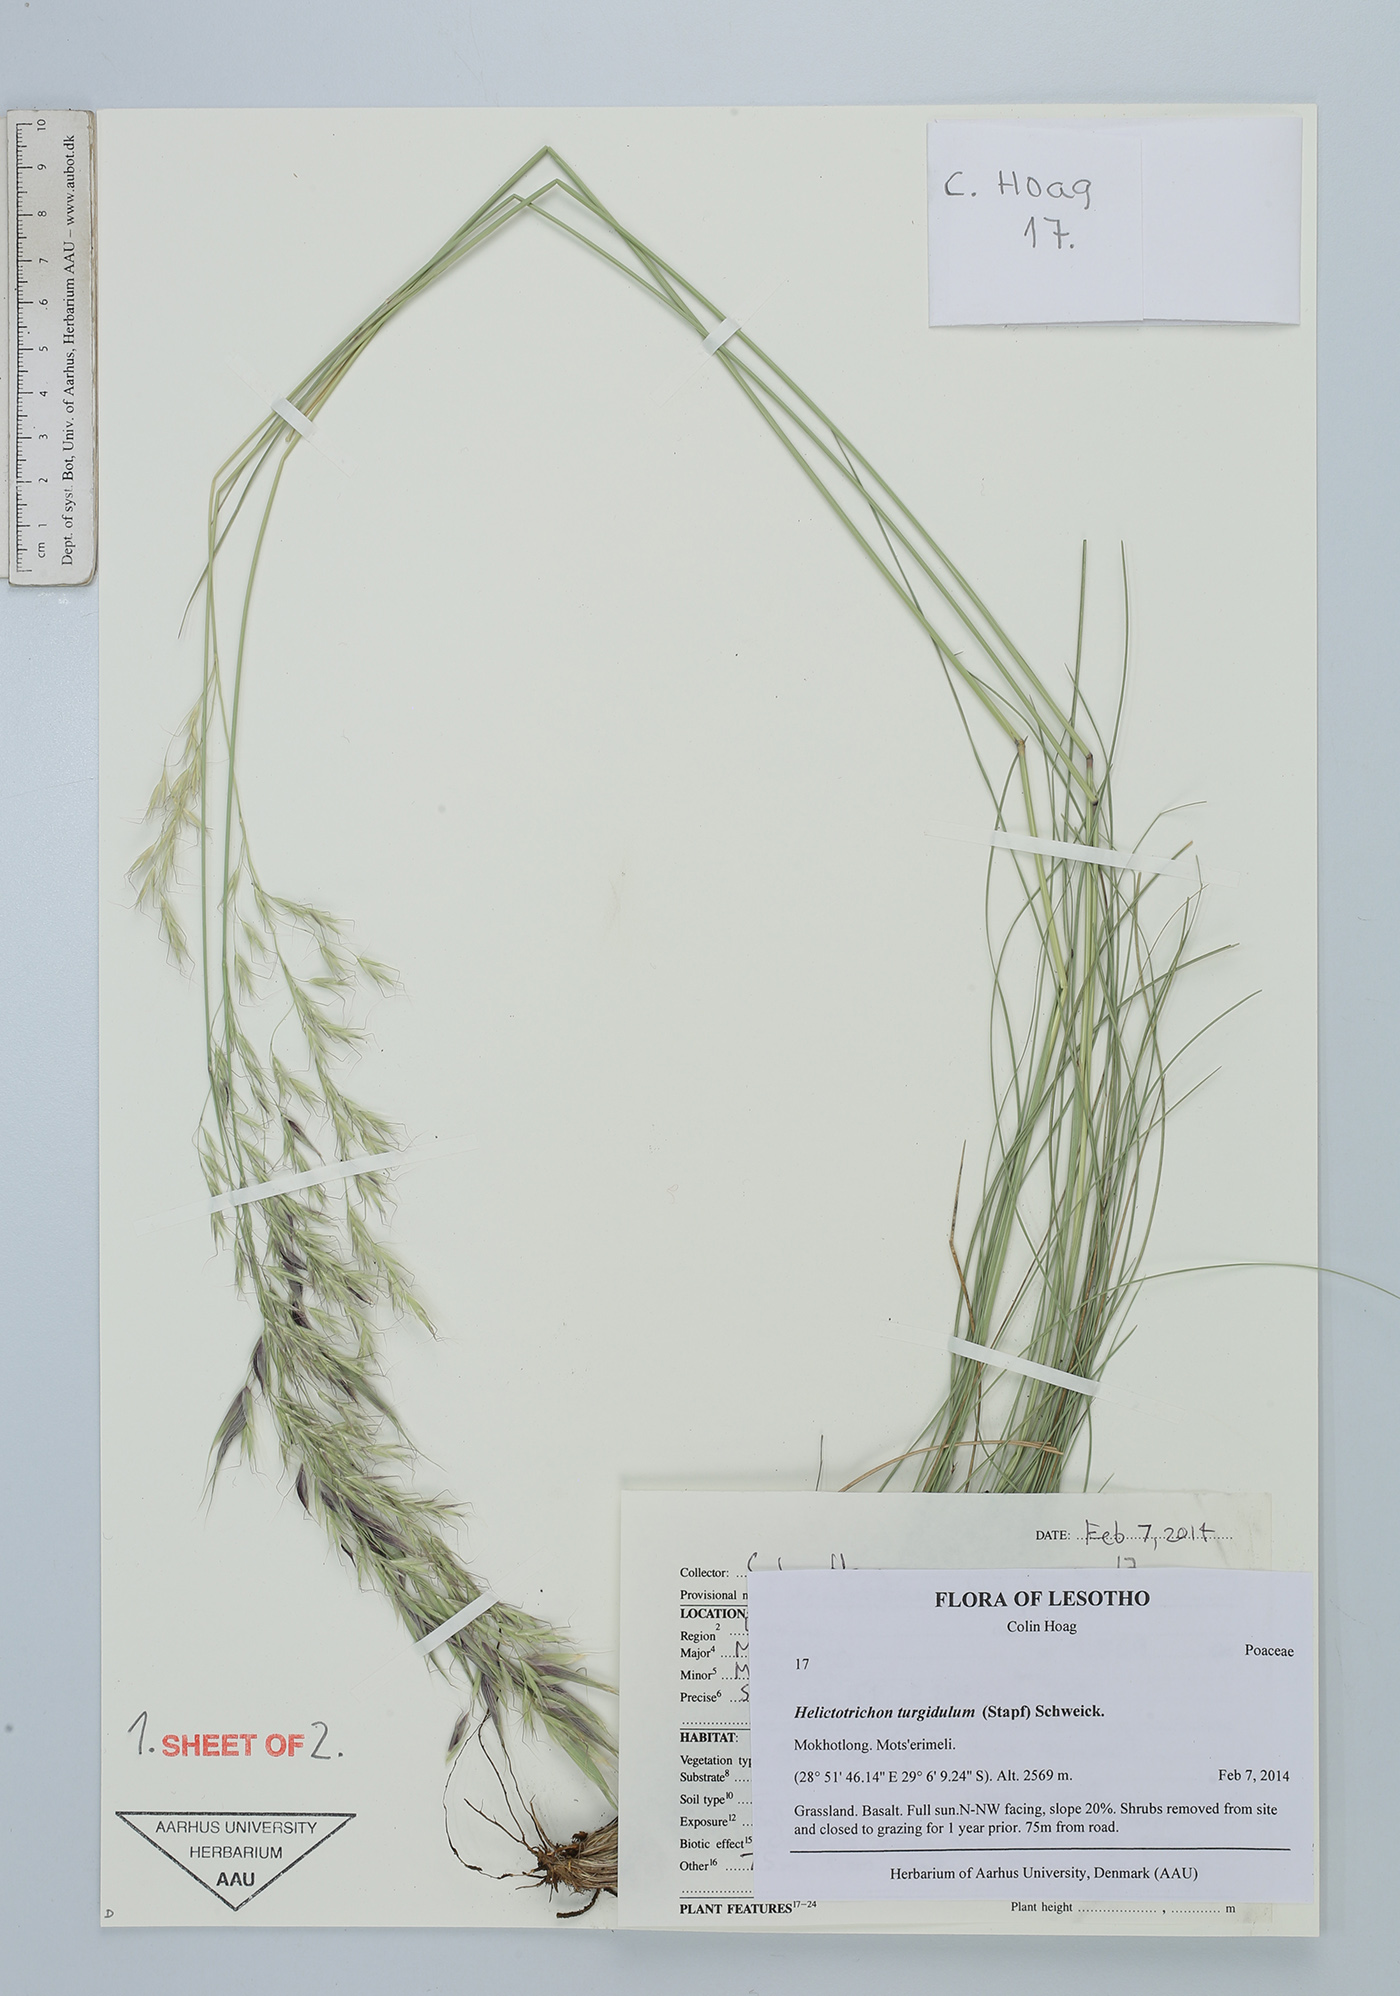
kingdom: Plantae
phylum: Tracheophyta
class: Liliopsida
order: Poales
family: Poaceae
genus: Trisetopsis
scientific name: Trisetopsis imberbis
